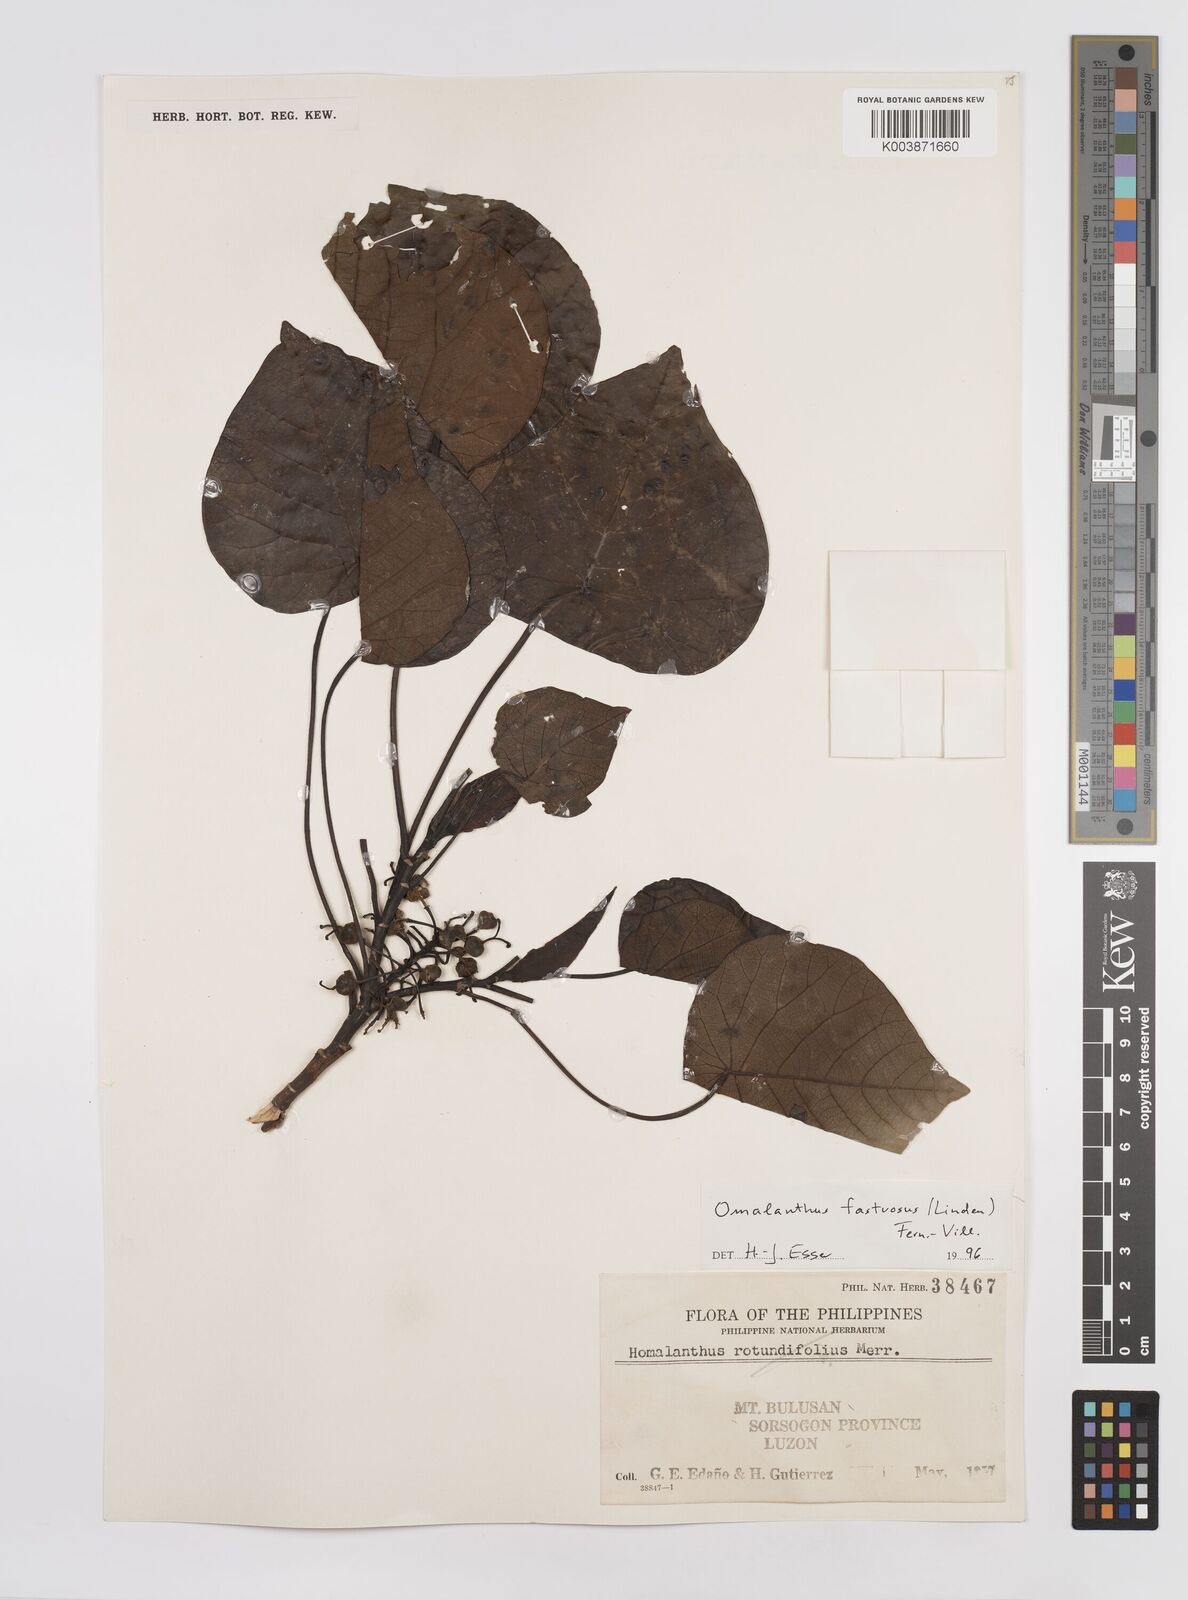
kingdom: Plantae
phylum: Tracheophyta
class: Magnoliopsida
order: Malpighiales
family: Euphorbiaceae
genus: Homalanthus
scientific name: Homalanthus fastuosus
